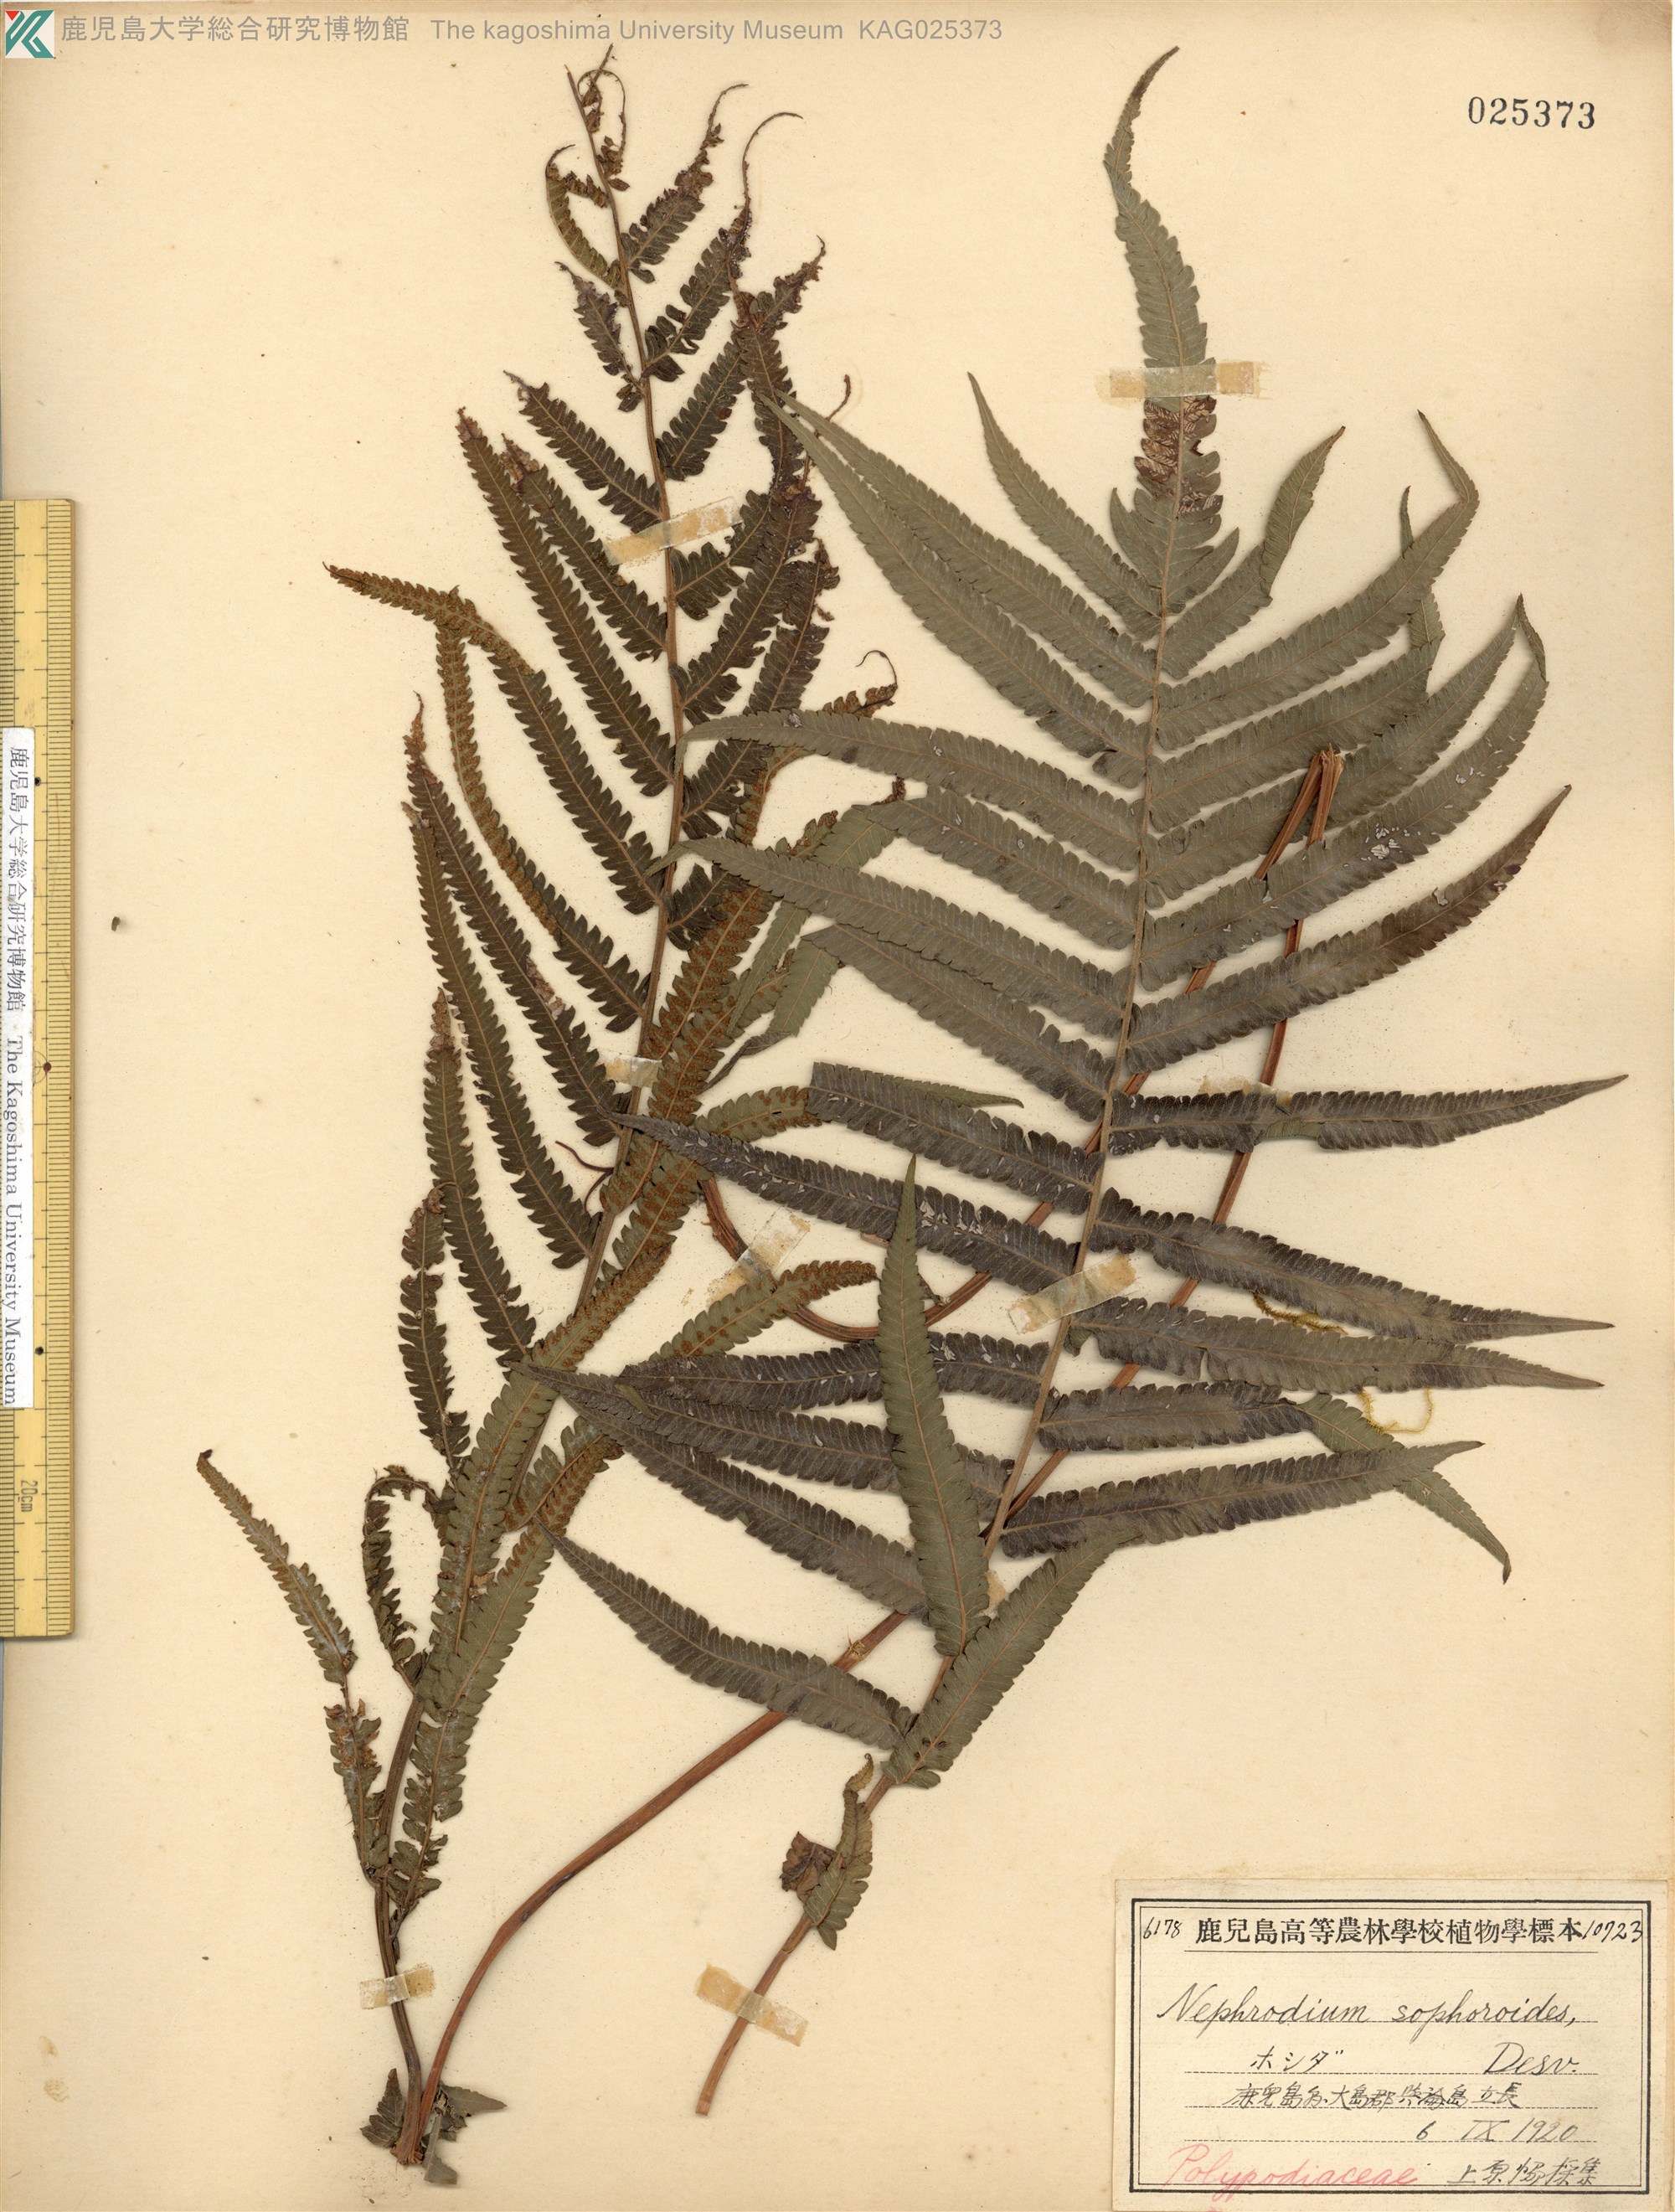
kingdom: Plantae
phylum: Tracheophyta
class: Polypodiopsida
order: Polypodiales
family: Thelypteridaceae
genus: Christella
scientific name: Christella acuminata
